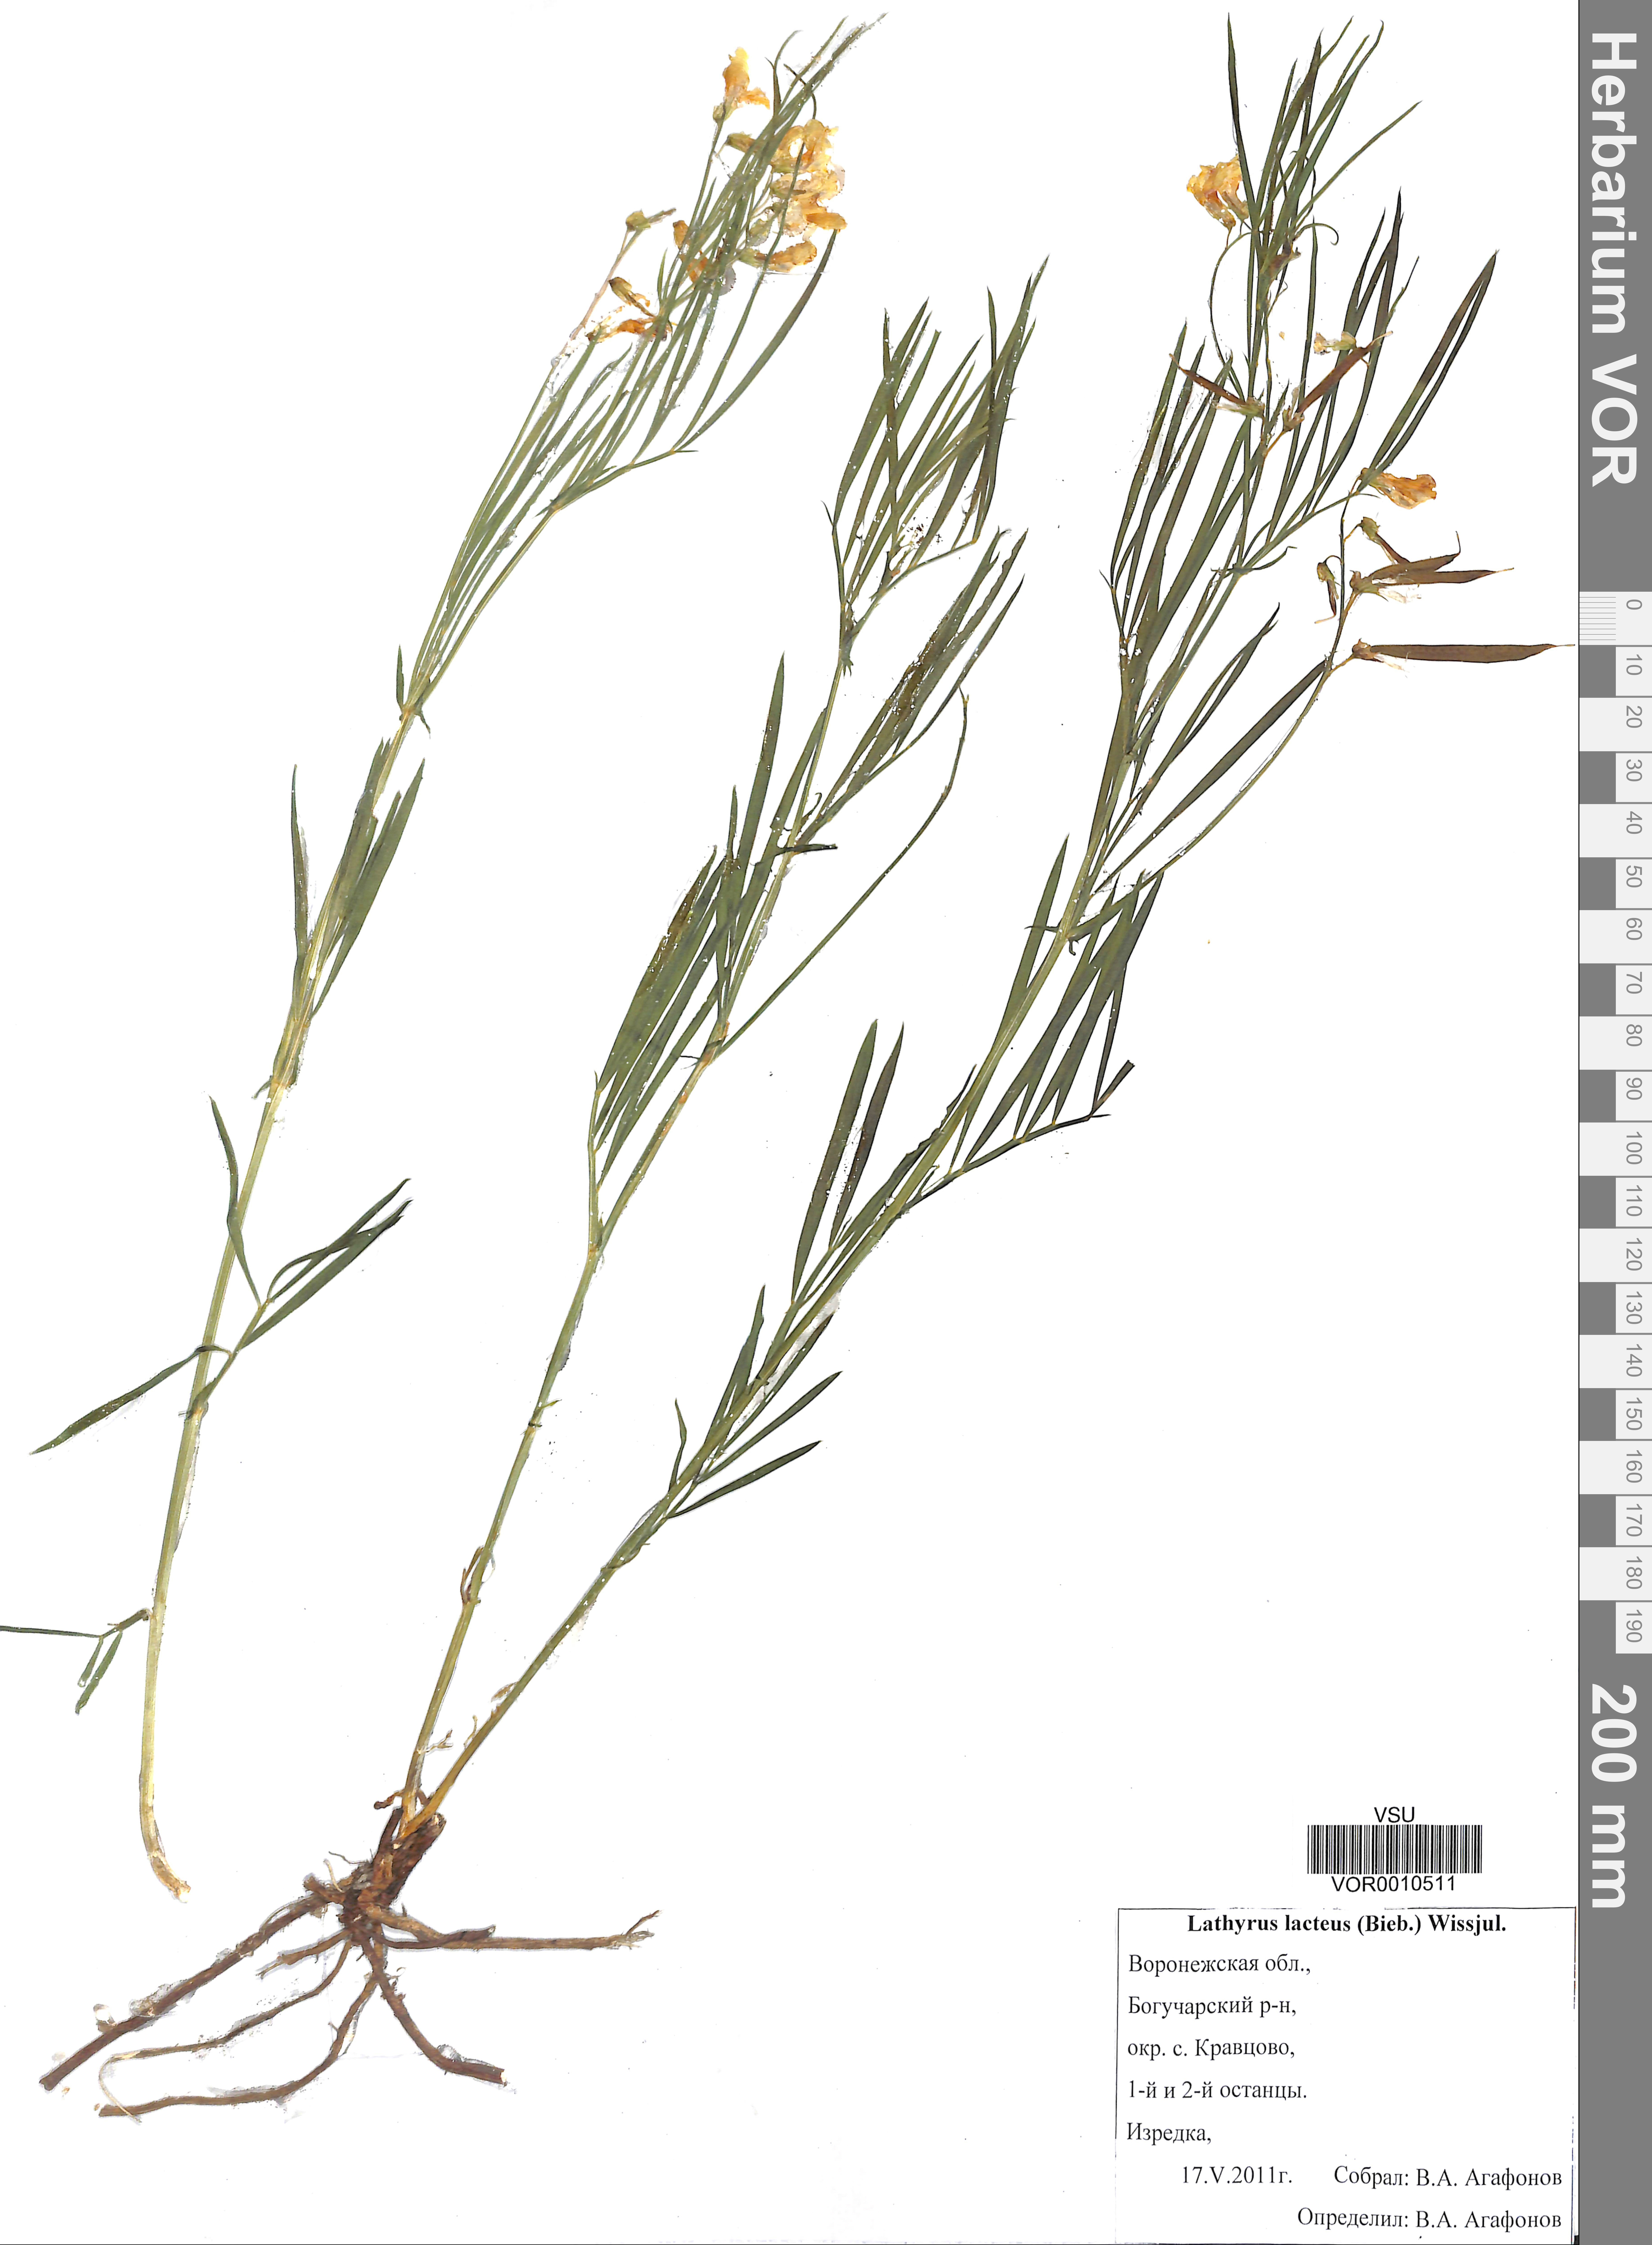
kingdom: Plantae
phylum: Tracheophyta
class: Magnoliopsida
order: Fabales
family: Fabaceae
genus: Lathyrus
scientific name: Lathyrus pannonicus
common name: Pea
